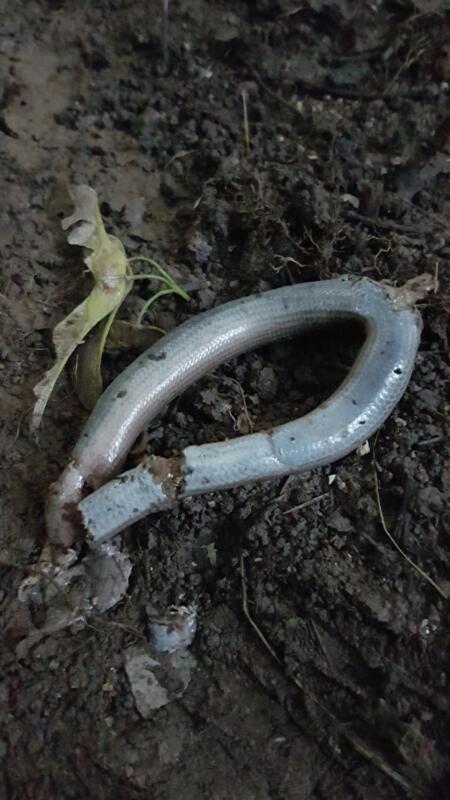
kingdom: Animalia
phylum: Chordata
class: Squamata
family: Anguidae
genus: Anguis
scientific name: Anguis fragilis
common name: Slow worm
